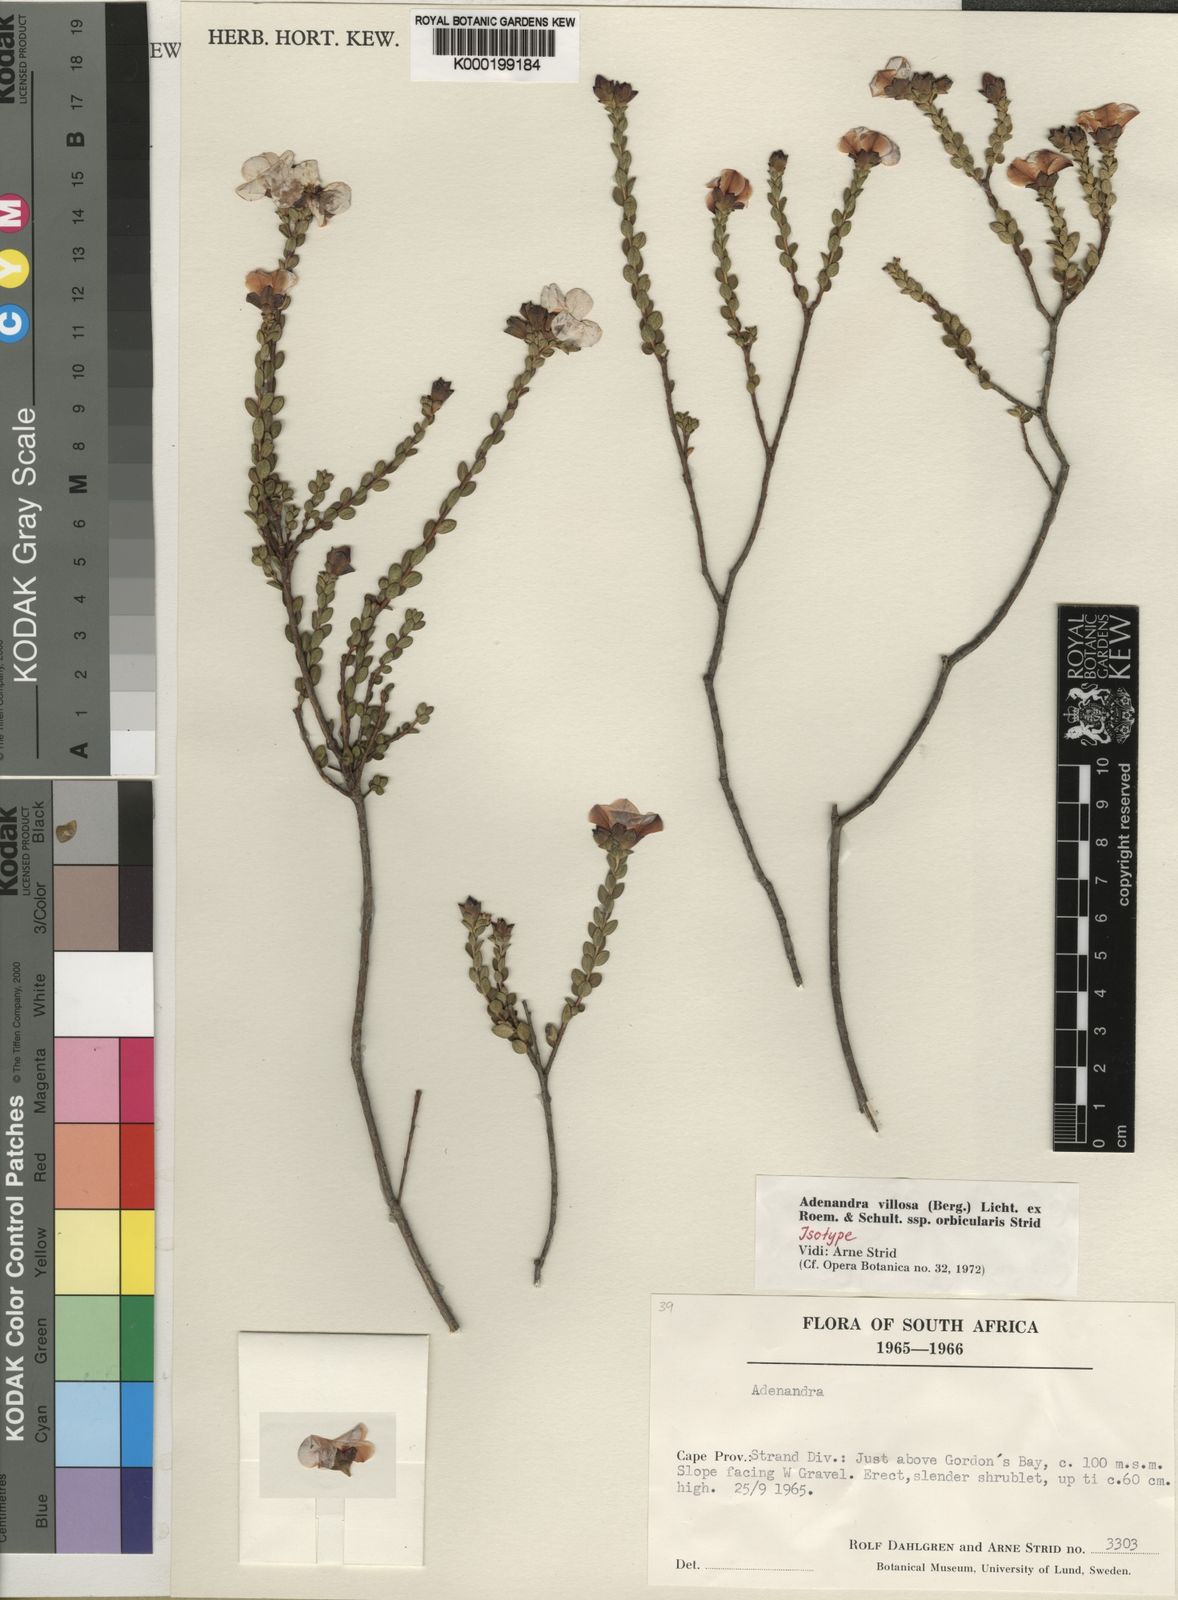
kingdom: Plantae
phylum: Tracheophyta
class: Magnoliopsida
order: Sapindales
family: Rutaceae
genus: Adenandra
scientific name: Adenandra villosa
